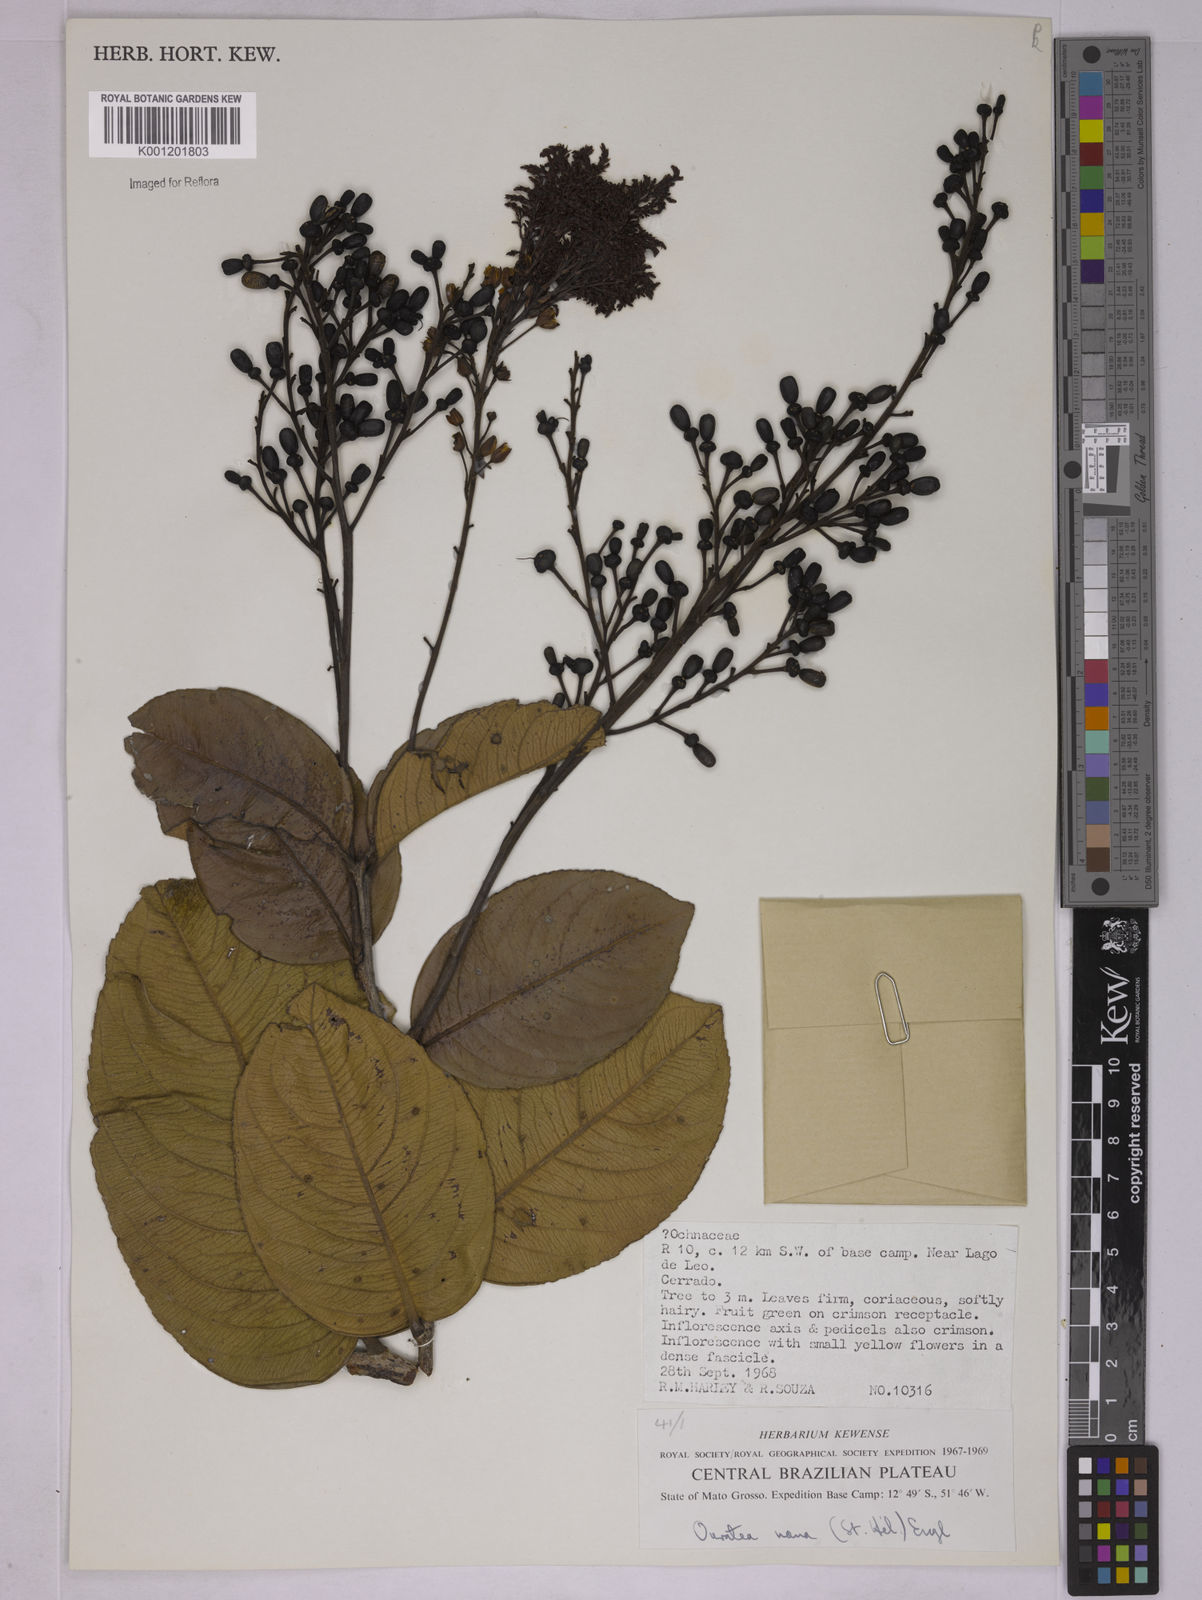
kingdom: Plantae
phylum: Tracheophyta
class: Magnoliopsida
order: Malpighiales
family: Ochnaceae
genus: Ouratea
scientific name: Ouratea nana
